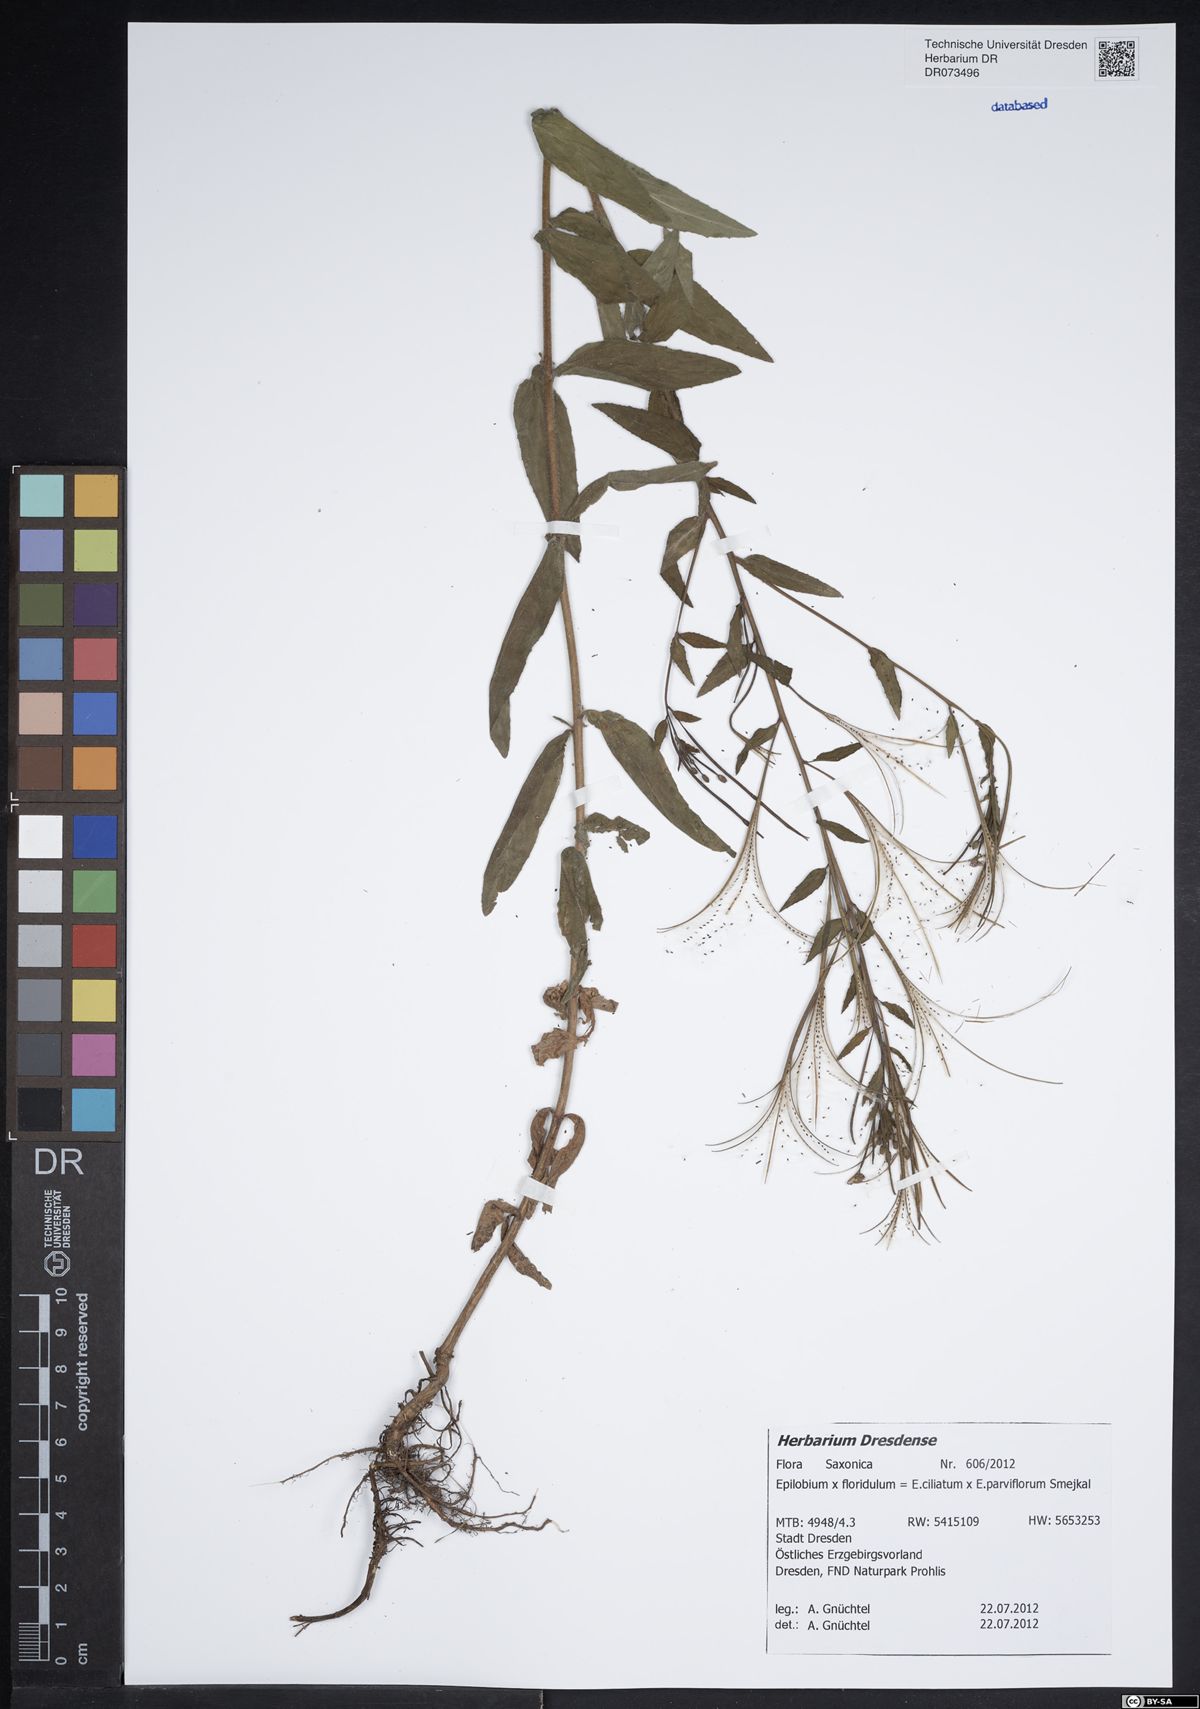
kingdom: Plantae
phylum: Tracheophyta
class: Magnoliopsida
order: Myrtales
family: Onagraceae
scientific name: Onagraceae
